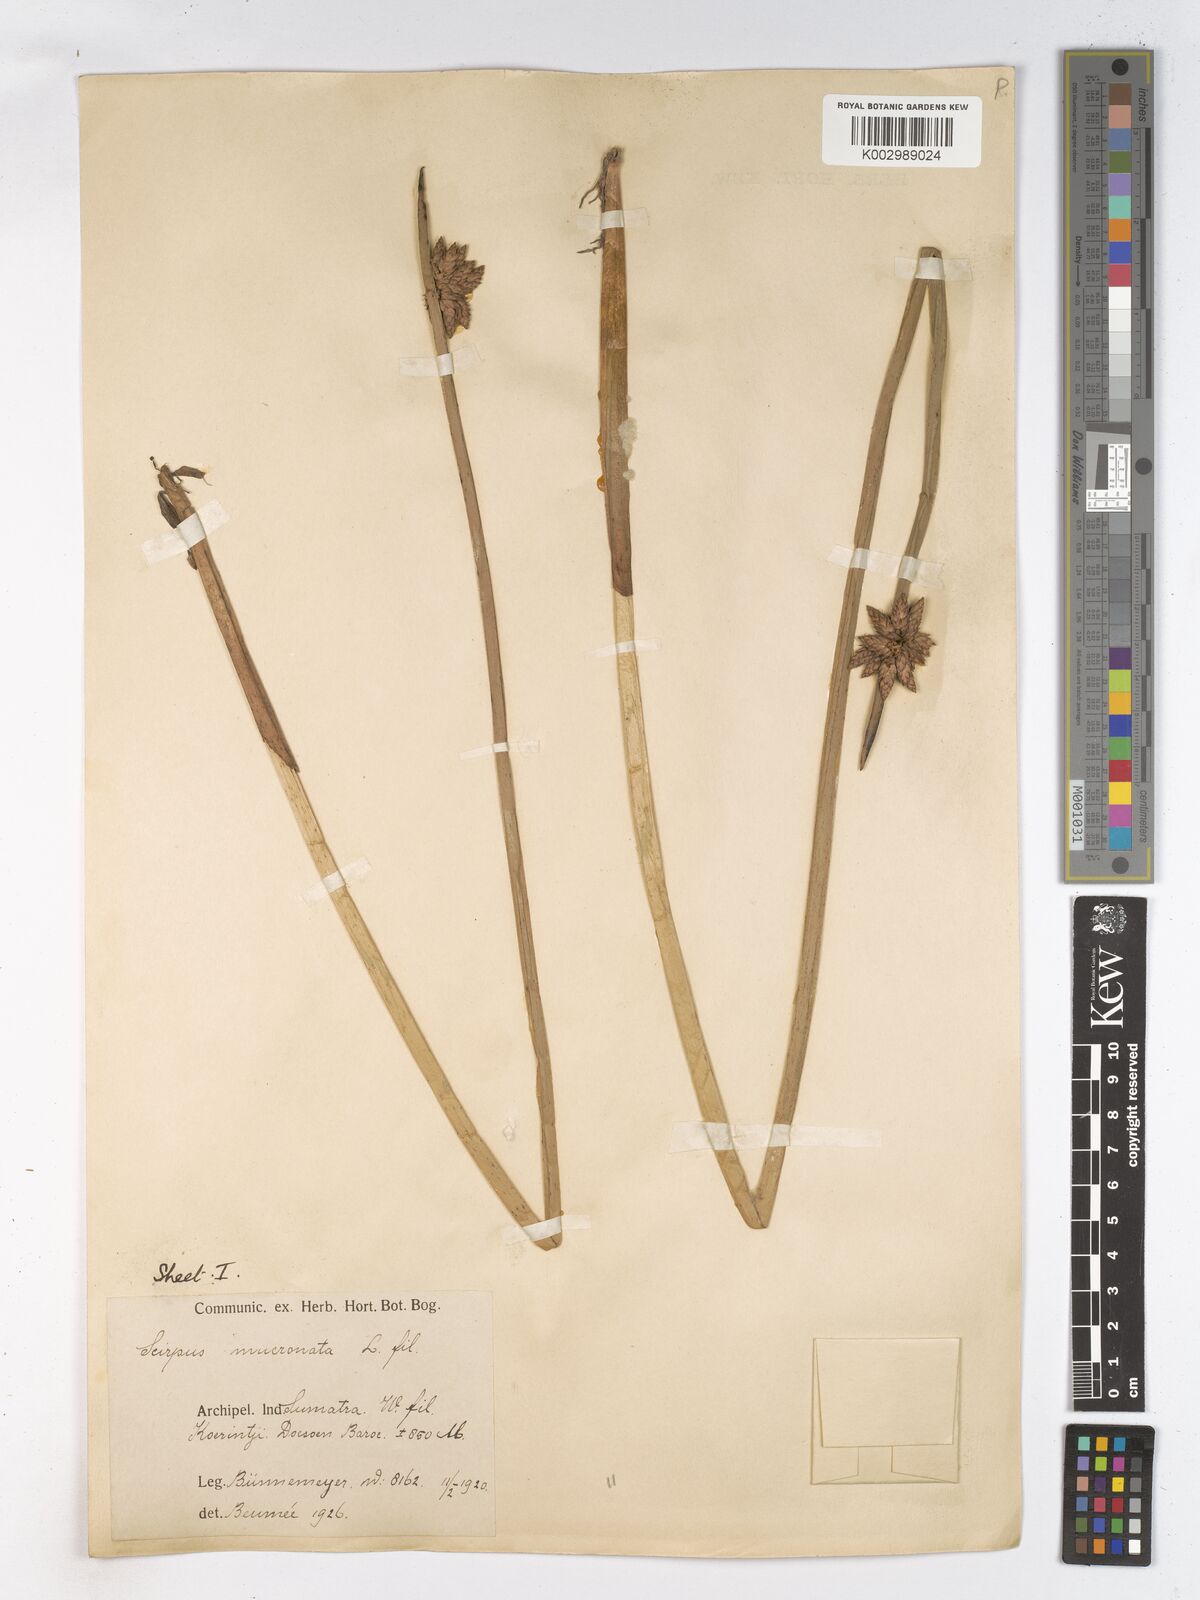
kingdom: Plantae
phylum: Tracheophyta
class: Liliopsida
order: Poales
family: Cyperaceae
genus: Schoenoplectiella
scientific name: Schoenoplectiella mucronata
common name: Bog bulrush
